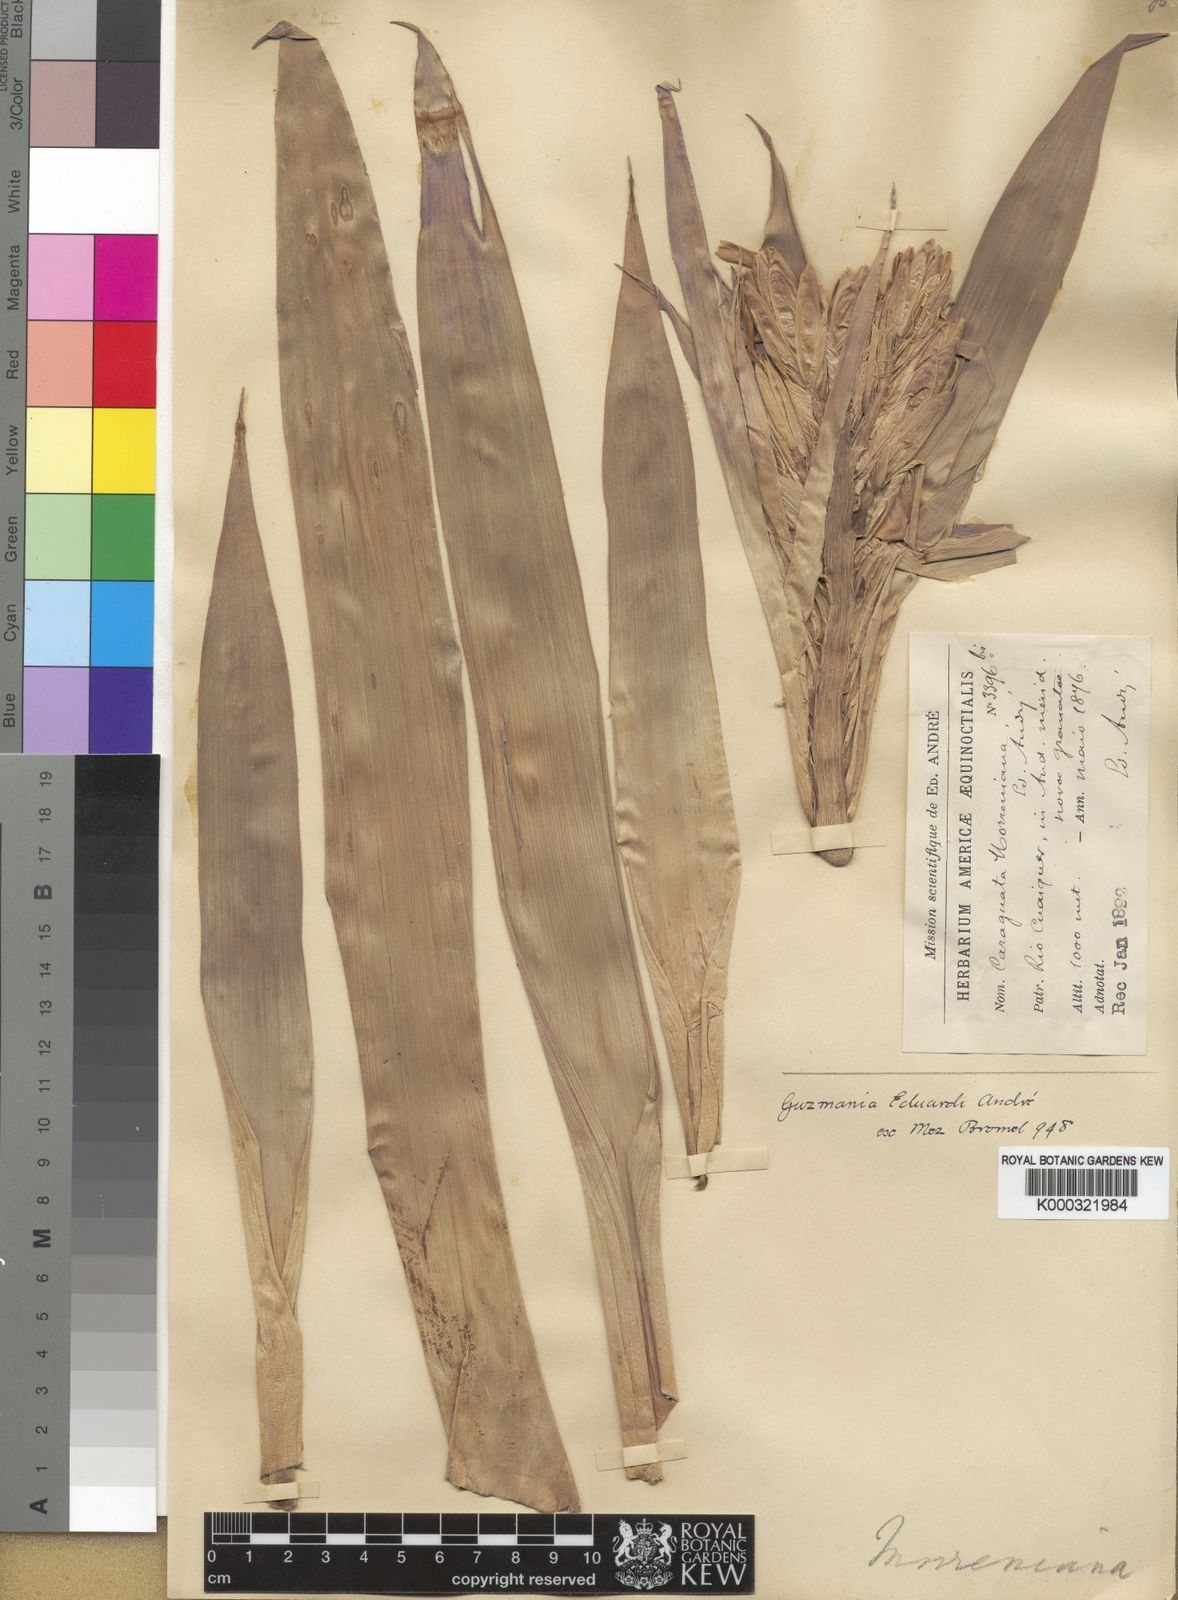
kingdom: Plantae
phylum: Tracheophyta
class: Liliopsida
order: Poales
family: Bromeliaceae
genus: Guzmania
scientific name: Guzmania
